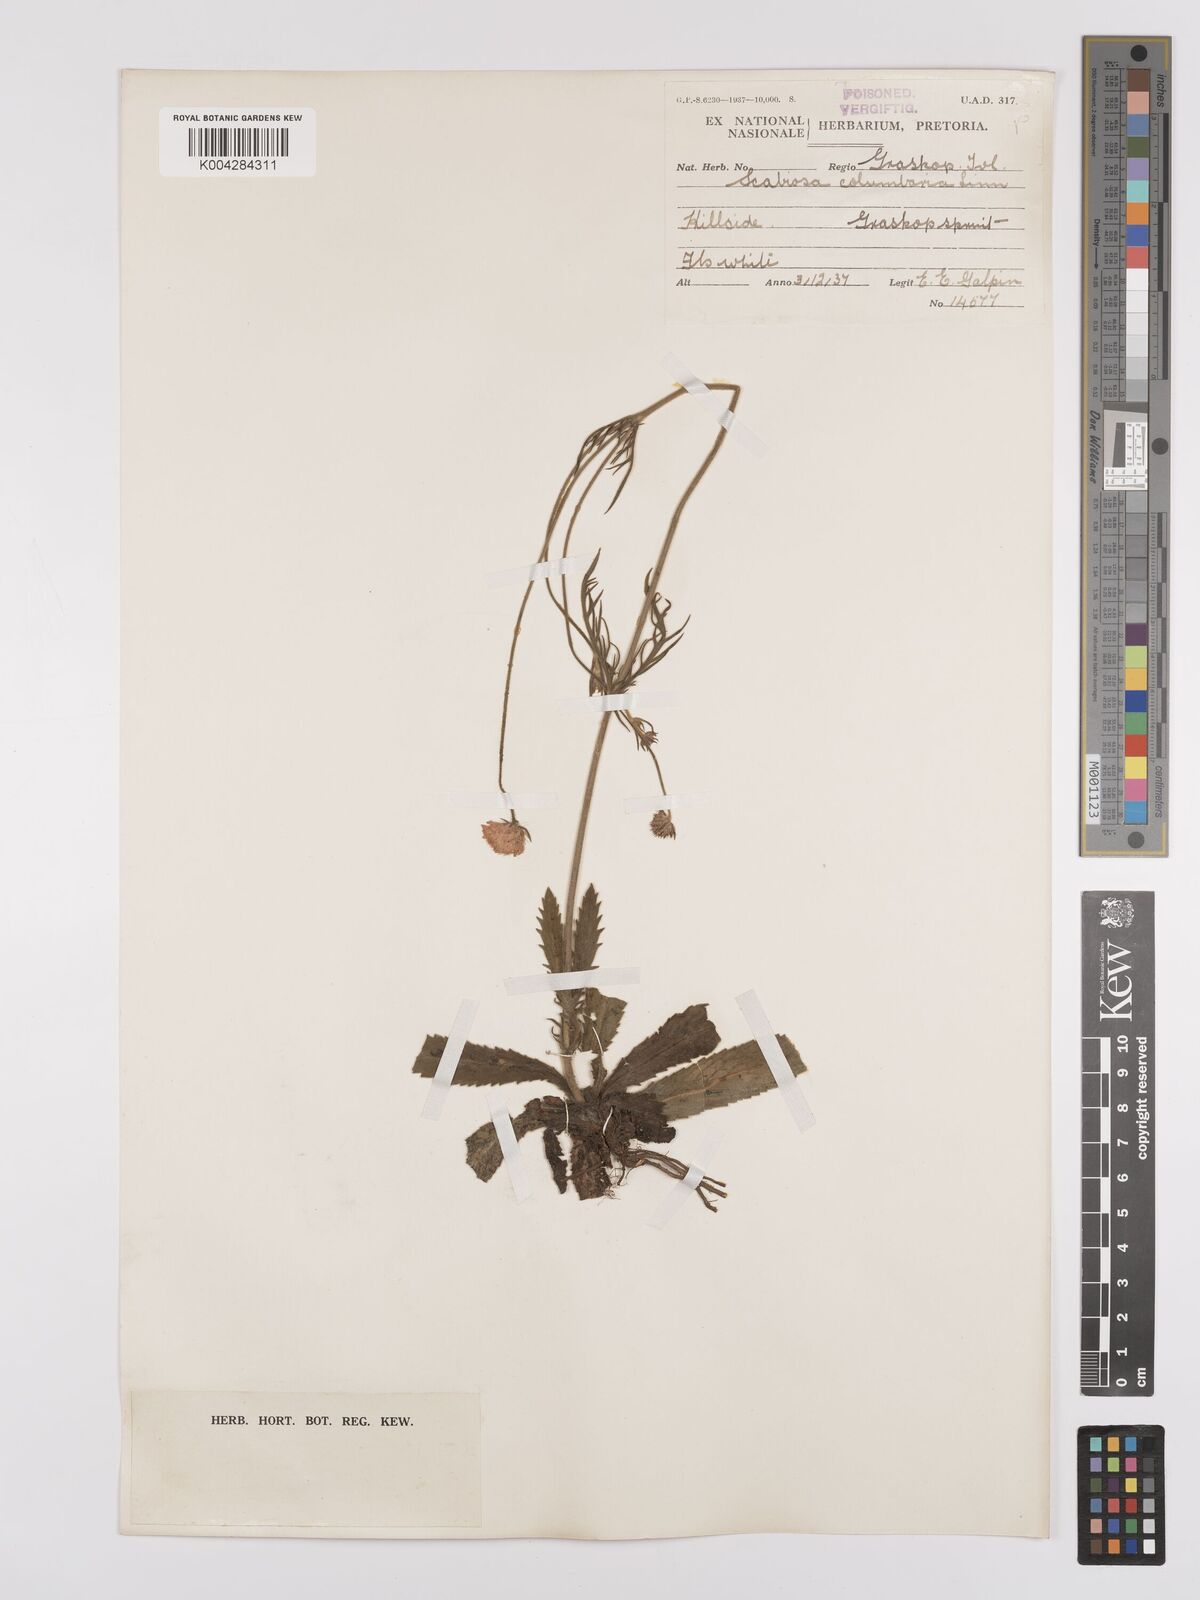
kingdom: Plantae
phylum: Tracheophyta
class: Magnoliopsida
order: Dipsacales
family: Caprifoliaceae
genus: Scabiosa
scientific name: Scabiosa austroafricana
